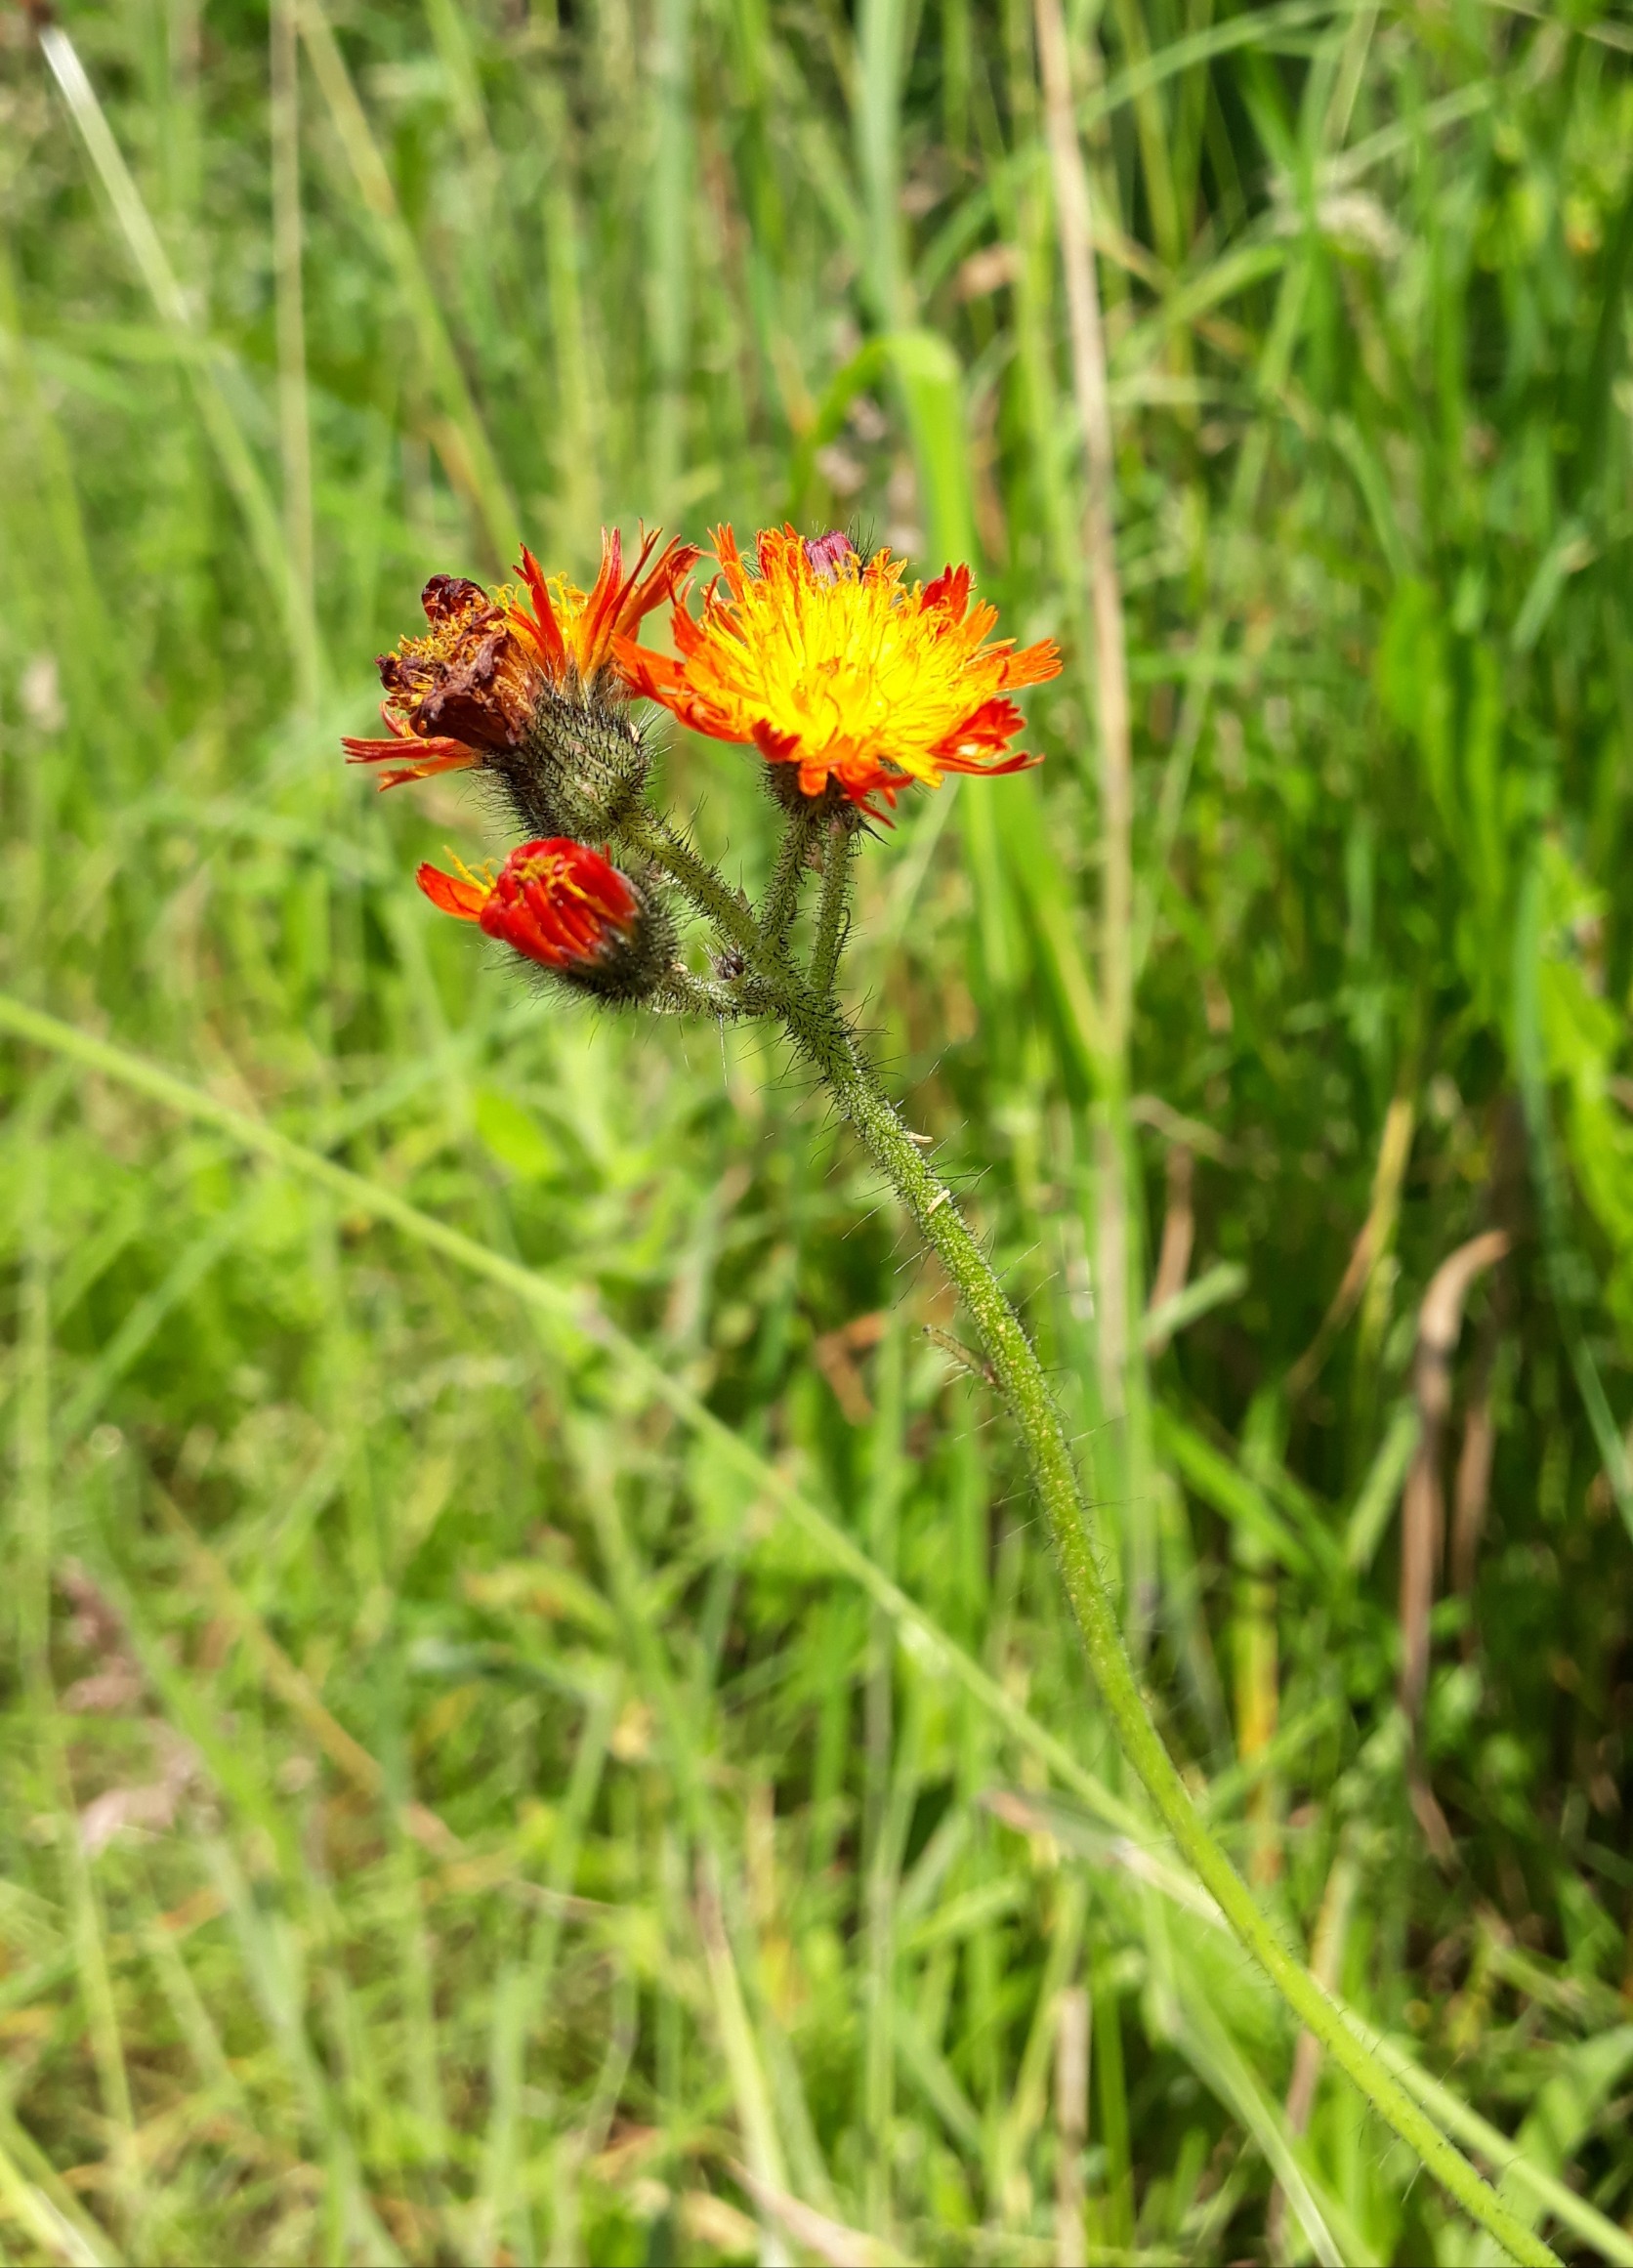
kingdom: Plantae
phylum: Tracheophyta
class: Magnoliopsida
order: Asterales
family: Asteraceae
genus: Pilosella
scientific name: Pilosella
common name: Pomerans-høgeurt × håret høgeurt
